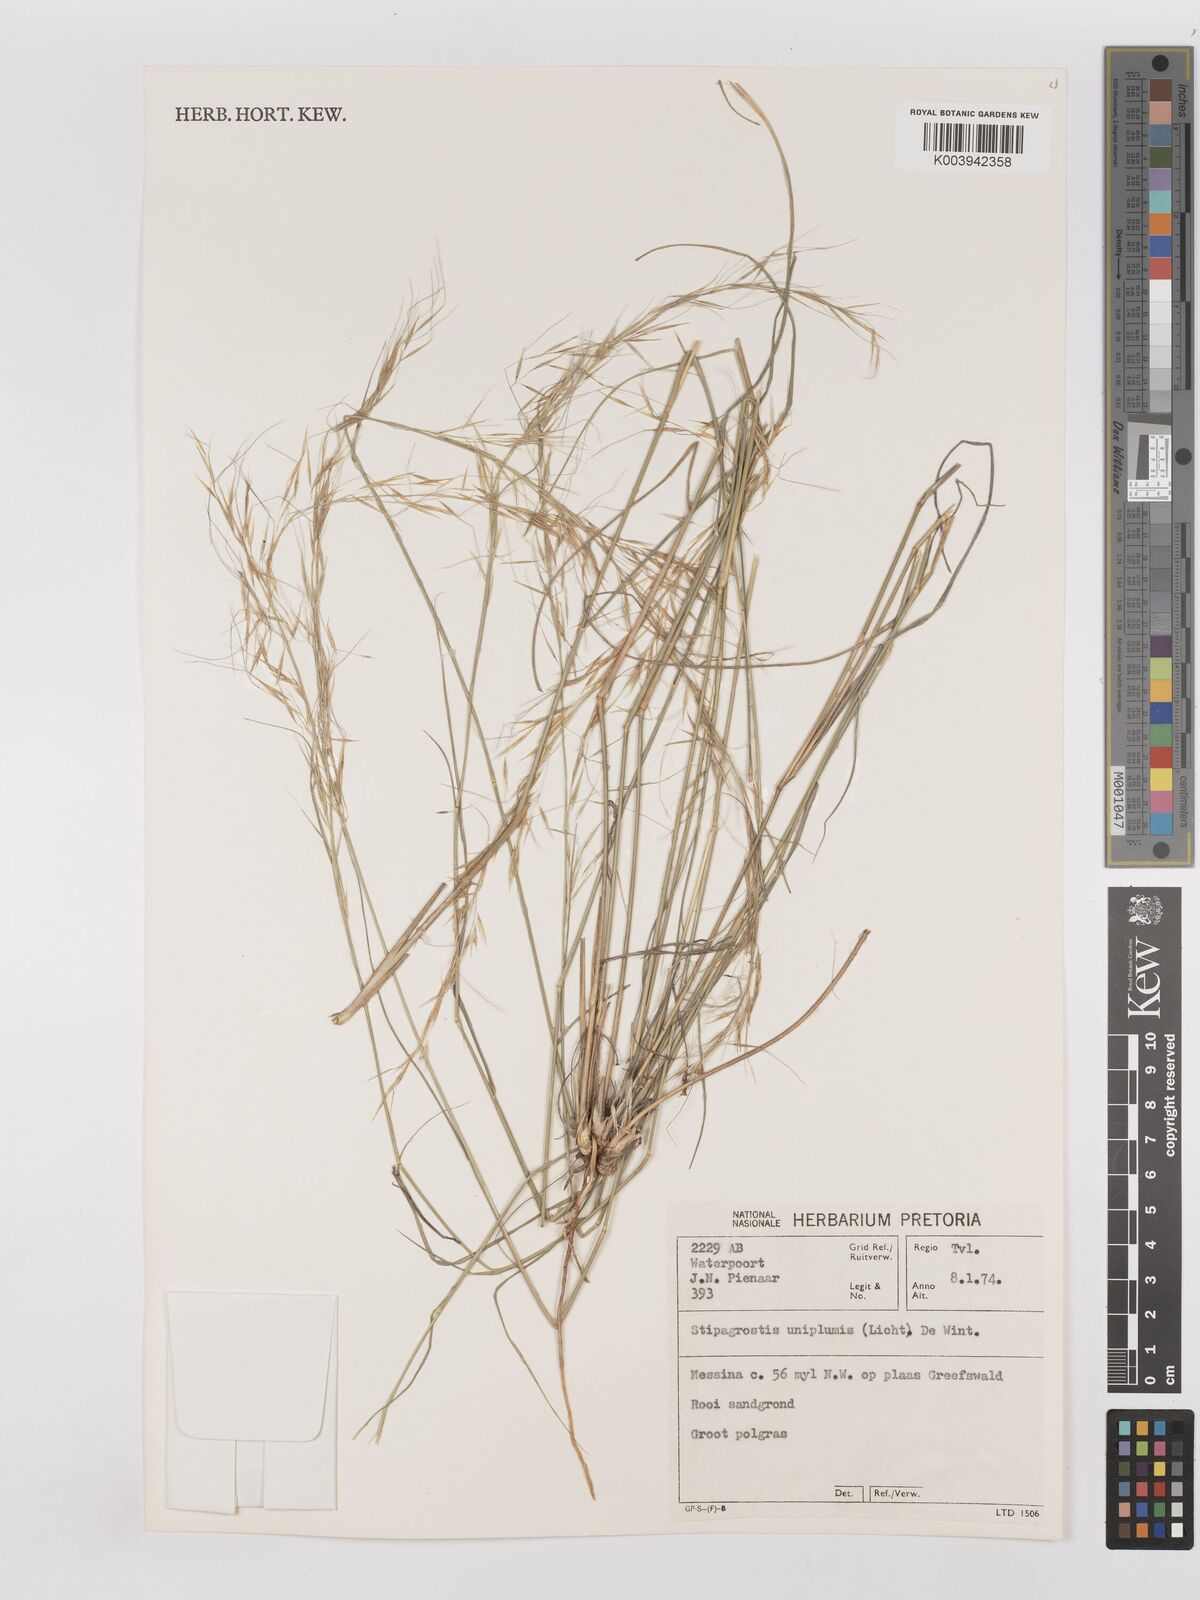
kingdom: Plantae
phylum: Tracheophyta
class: Liliopsida
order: Poales
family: Poaceae
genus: Stipagrostis
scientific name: Stipagrostis uniplumis
